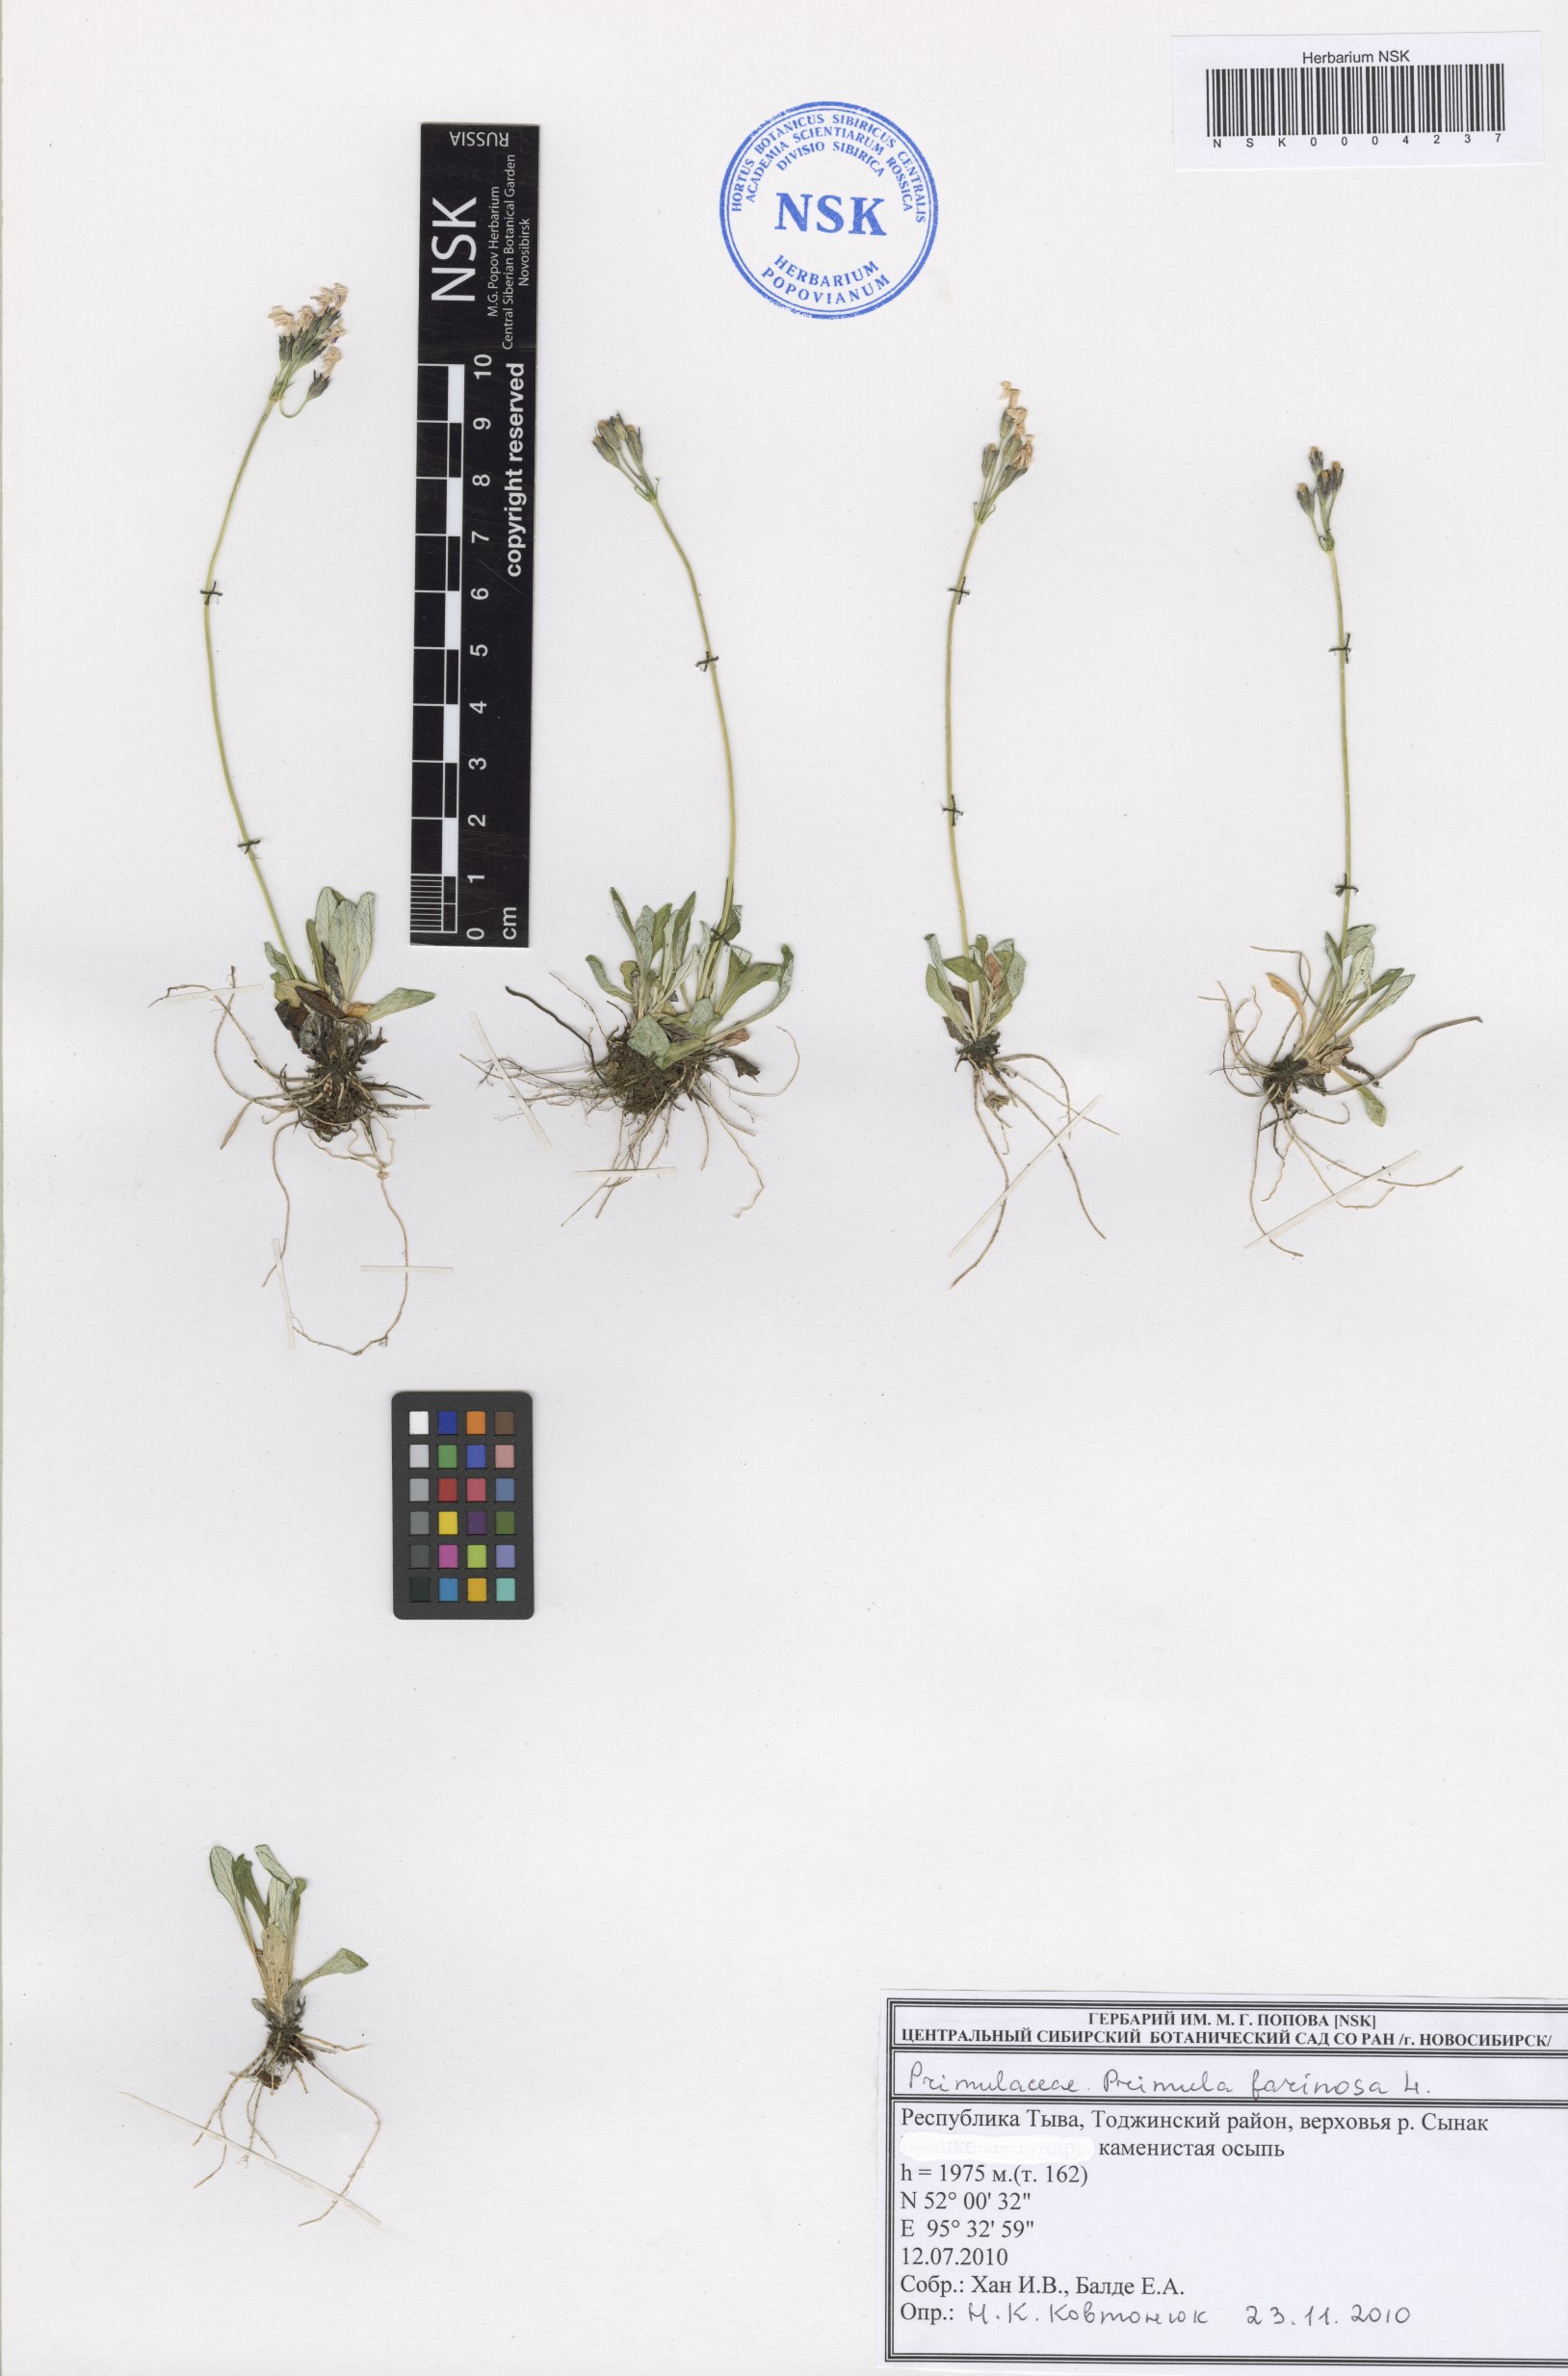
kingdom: Plantae
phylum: Tracheophyta
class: Magnoliopsida
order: Ericales
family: Primulaceae
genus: Primula
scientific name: Primula farinosa
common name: Bird's-eye primrose
